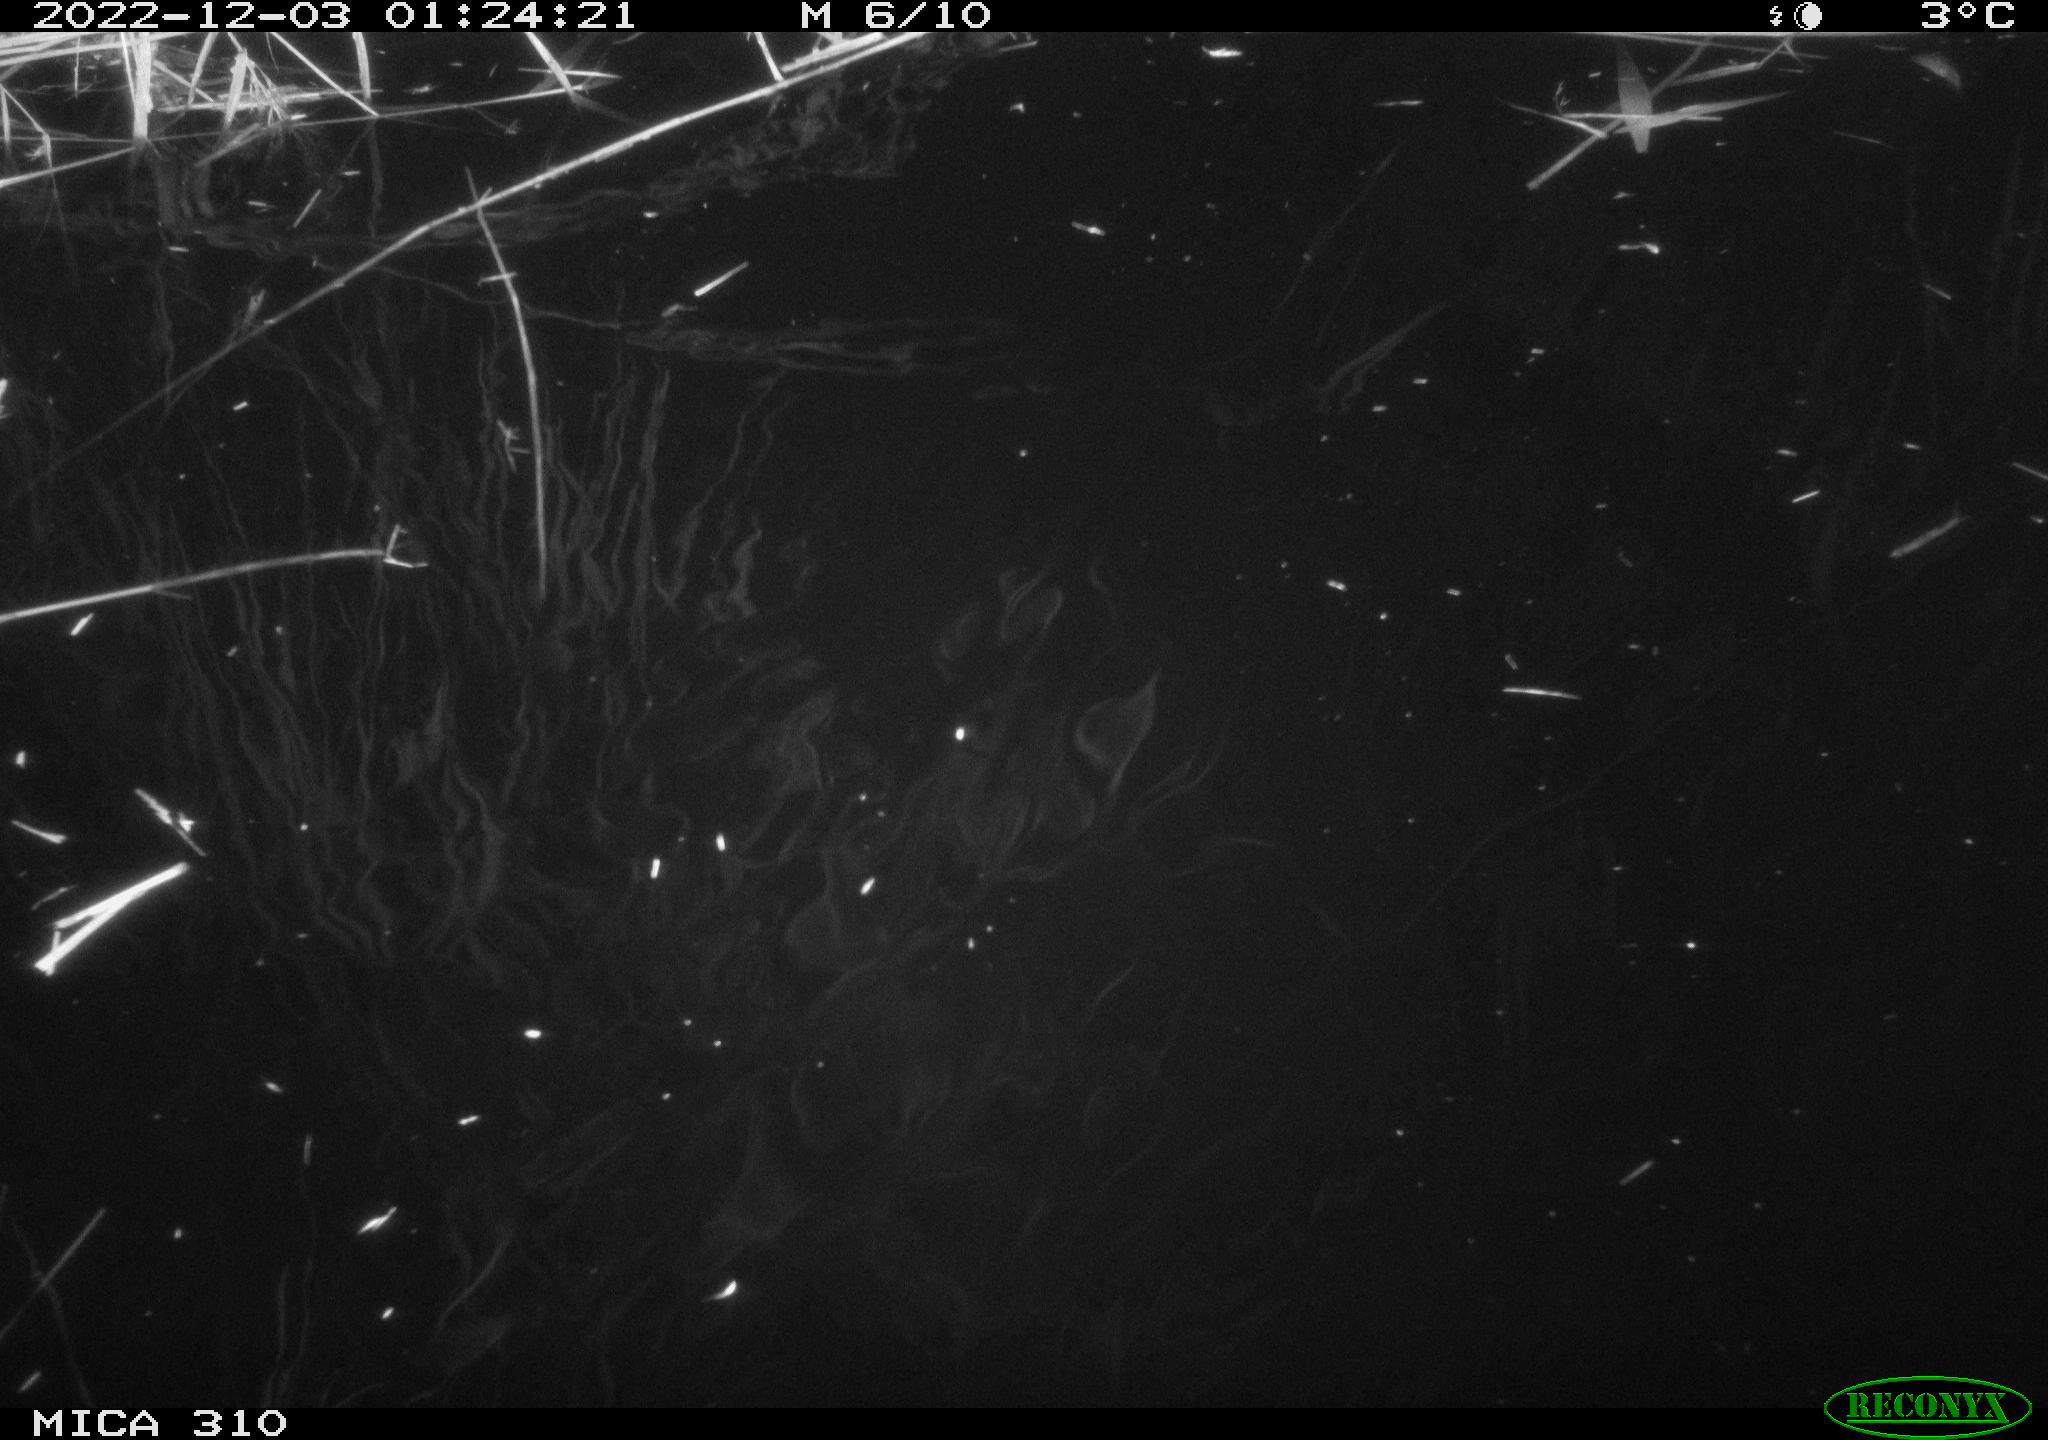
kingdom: Animalia
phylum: Chordata
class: Mammalia
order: Rodentia
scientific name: Rodentia
